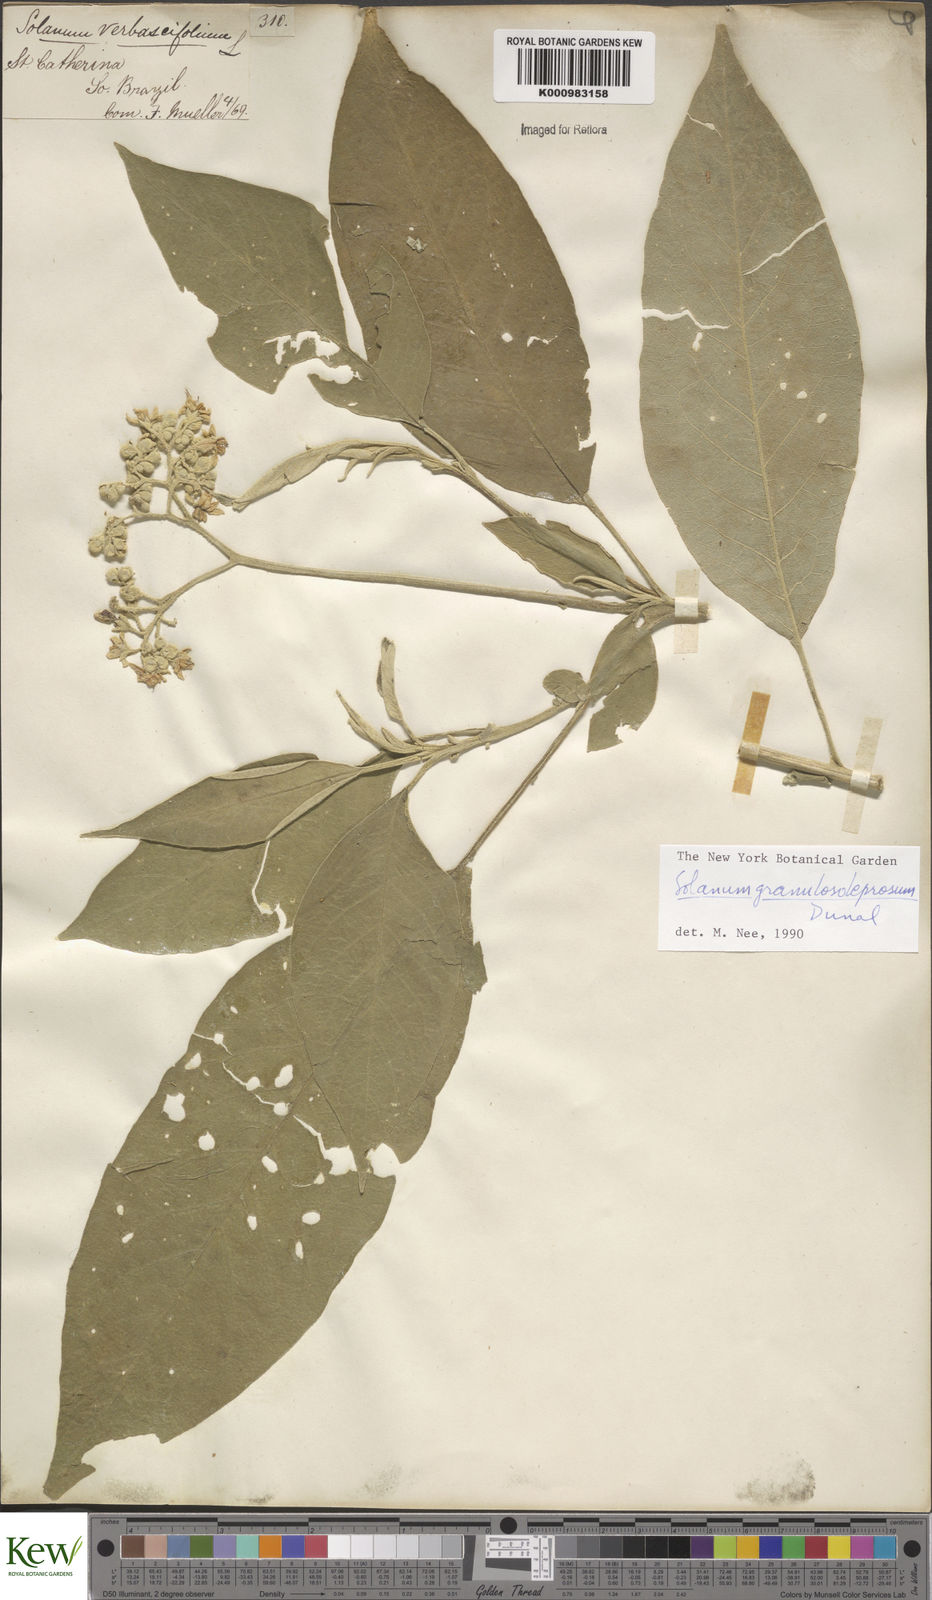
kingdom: Plantae
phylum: Tracheophyta
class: Magnoliopsida
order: Solanales
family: Solanaceae
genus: Solanum
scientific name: Solanum granulosoleprosum
